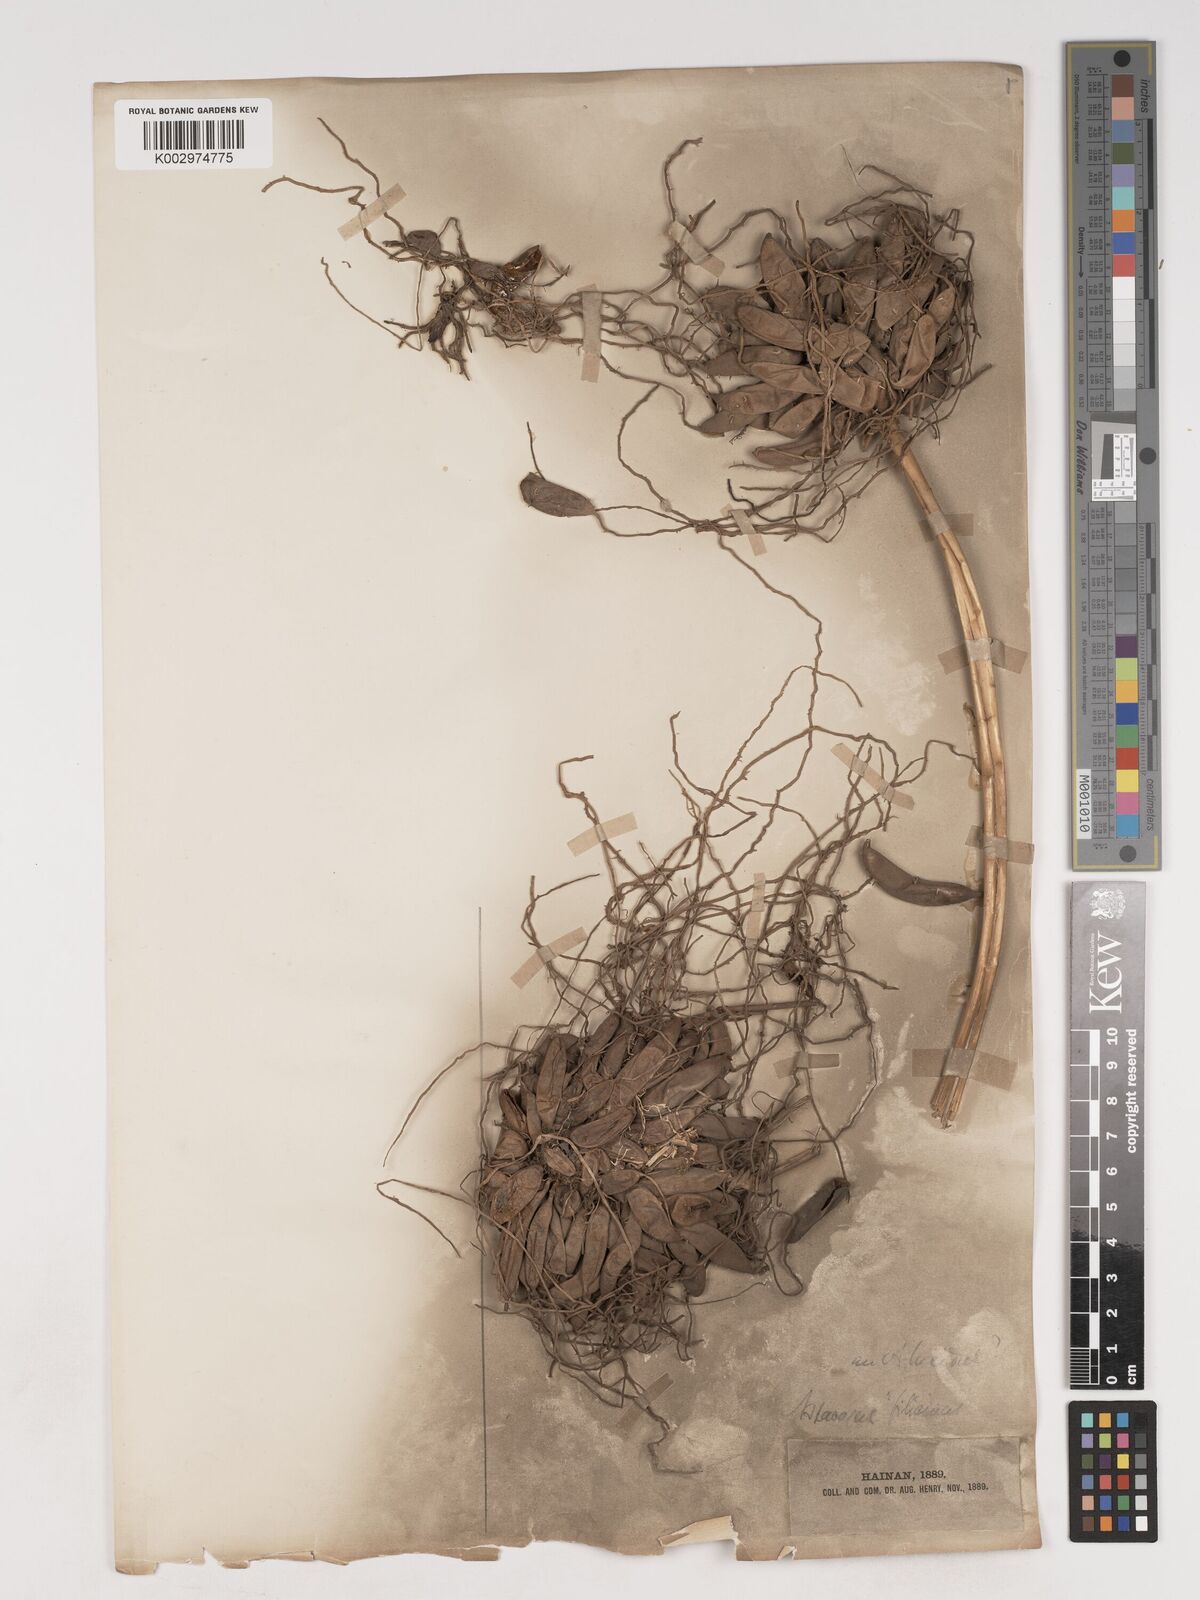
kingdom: Plantae
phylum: Tracheophyta
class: Liliopsida
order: Asparagales
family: Asparagaceae
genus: Asparagus
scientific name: Asparagus cochinchinensis
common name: Chinese asparagus
